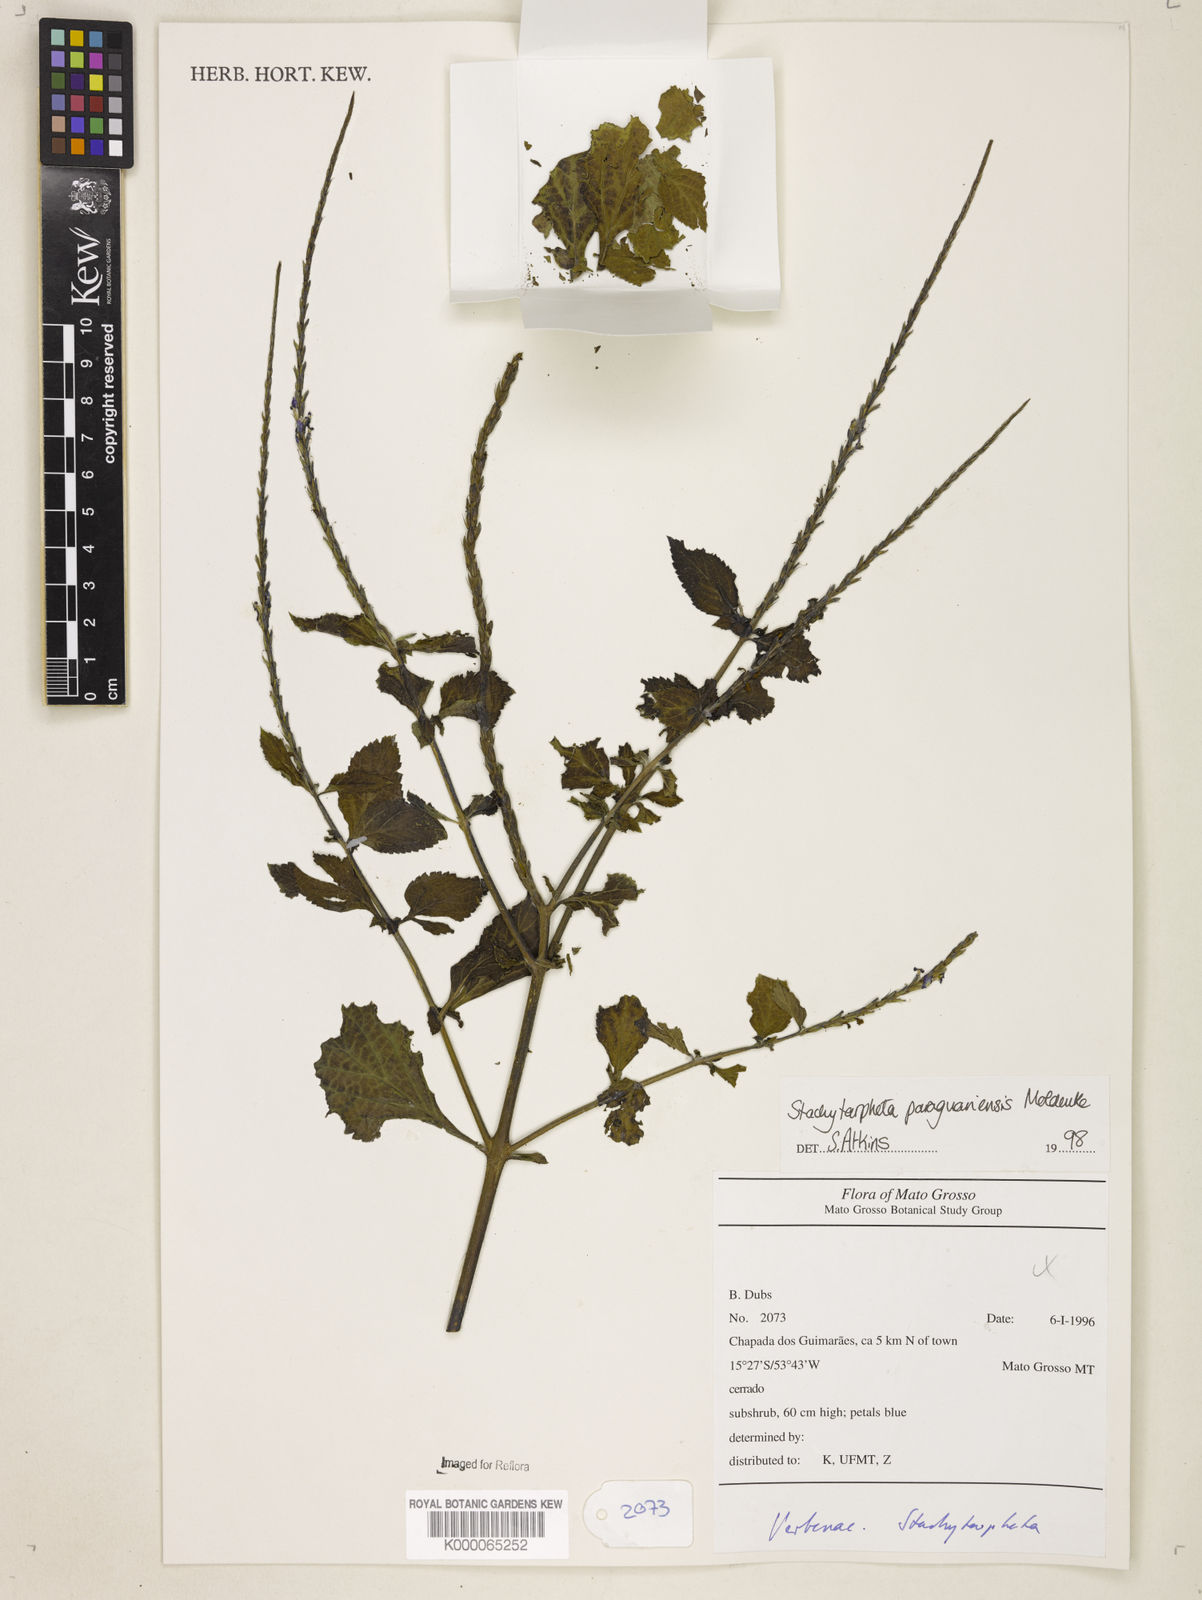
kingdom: Plantae
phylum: Tracheophyta
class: Magnoliopsida
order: Lamiales
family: Verbenaceae
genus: Stachytarpheta
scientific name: Stachytarpheta paraguariensis
